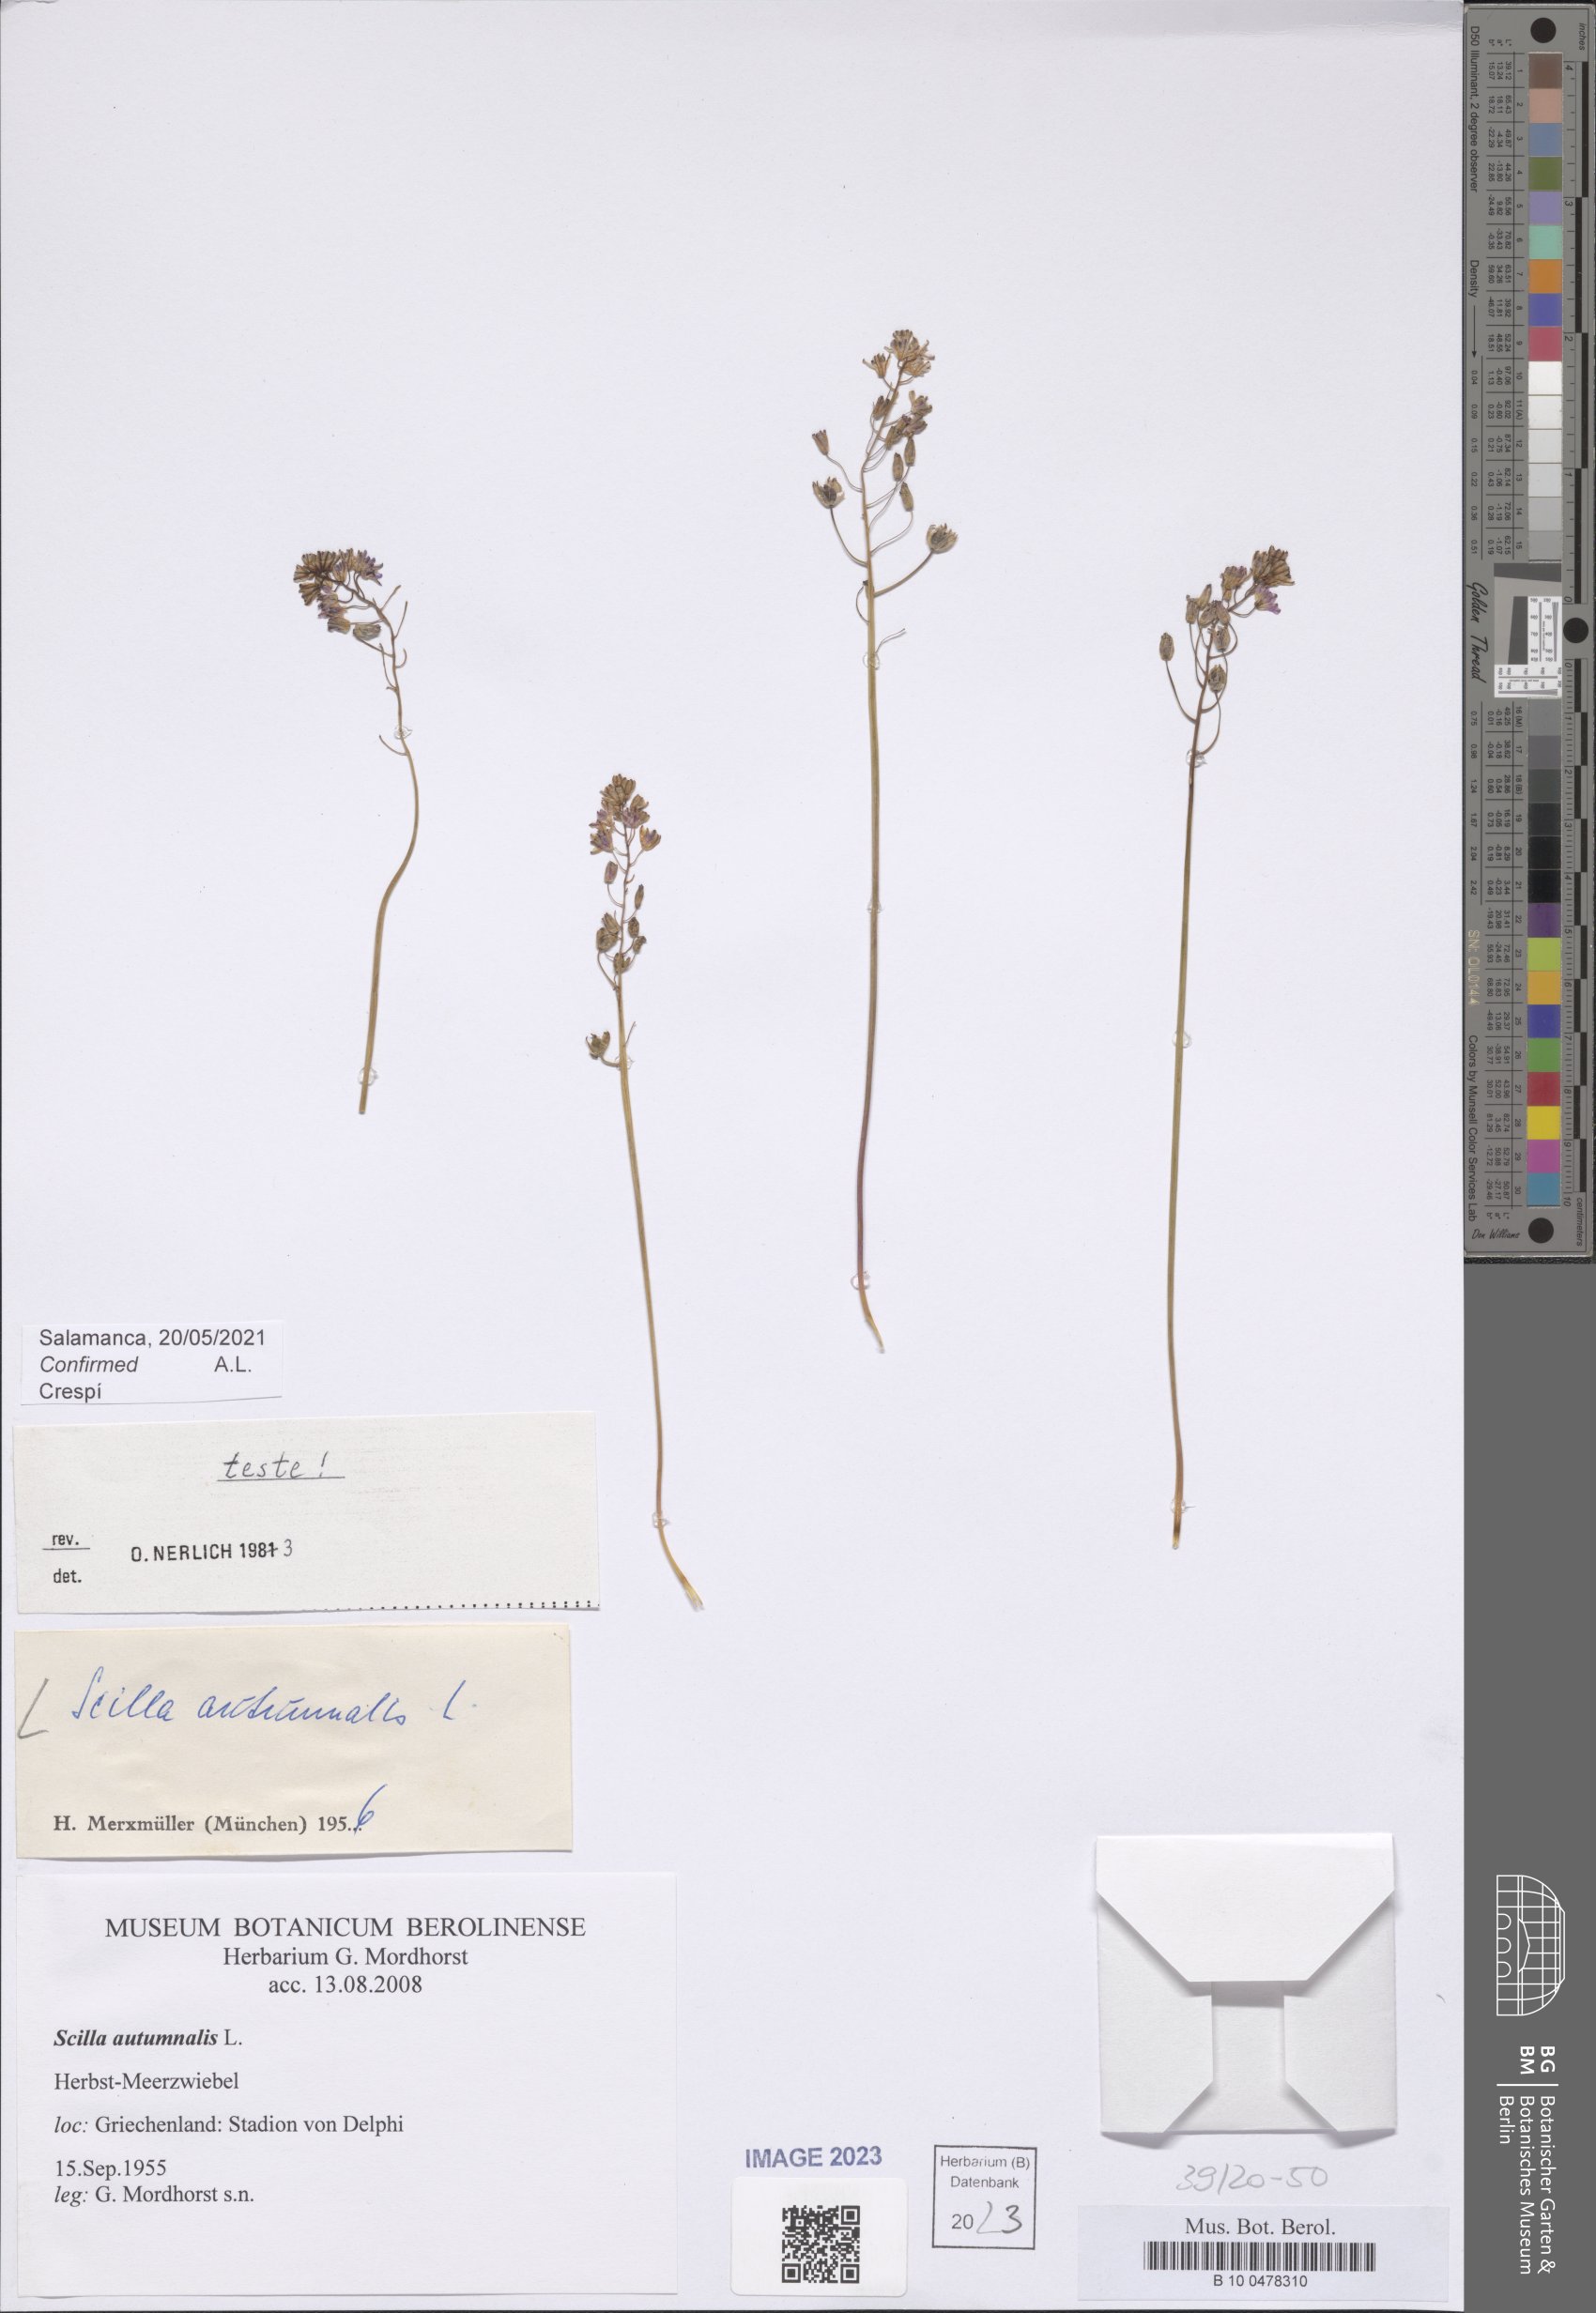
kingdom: Plantae
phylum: Tracheophyta
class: Liliopsida
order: Asparagales
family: Asparagaceae
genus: Prospero
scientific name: Prospero autumnale
